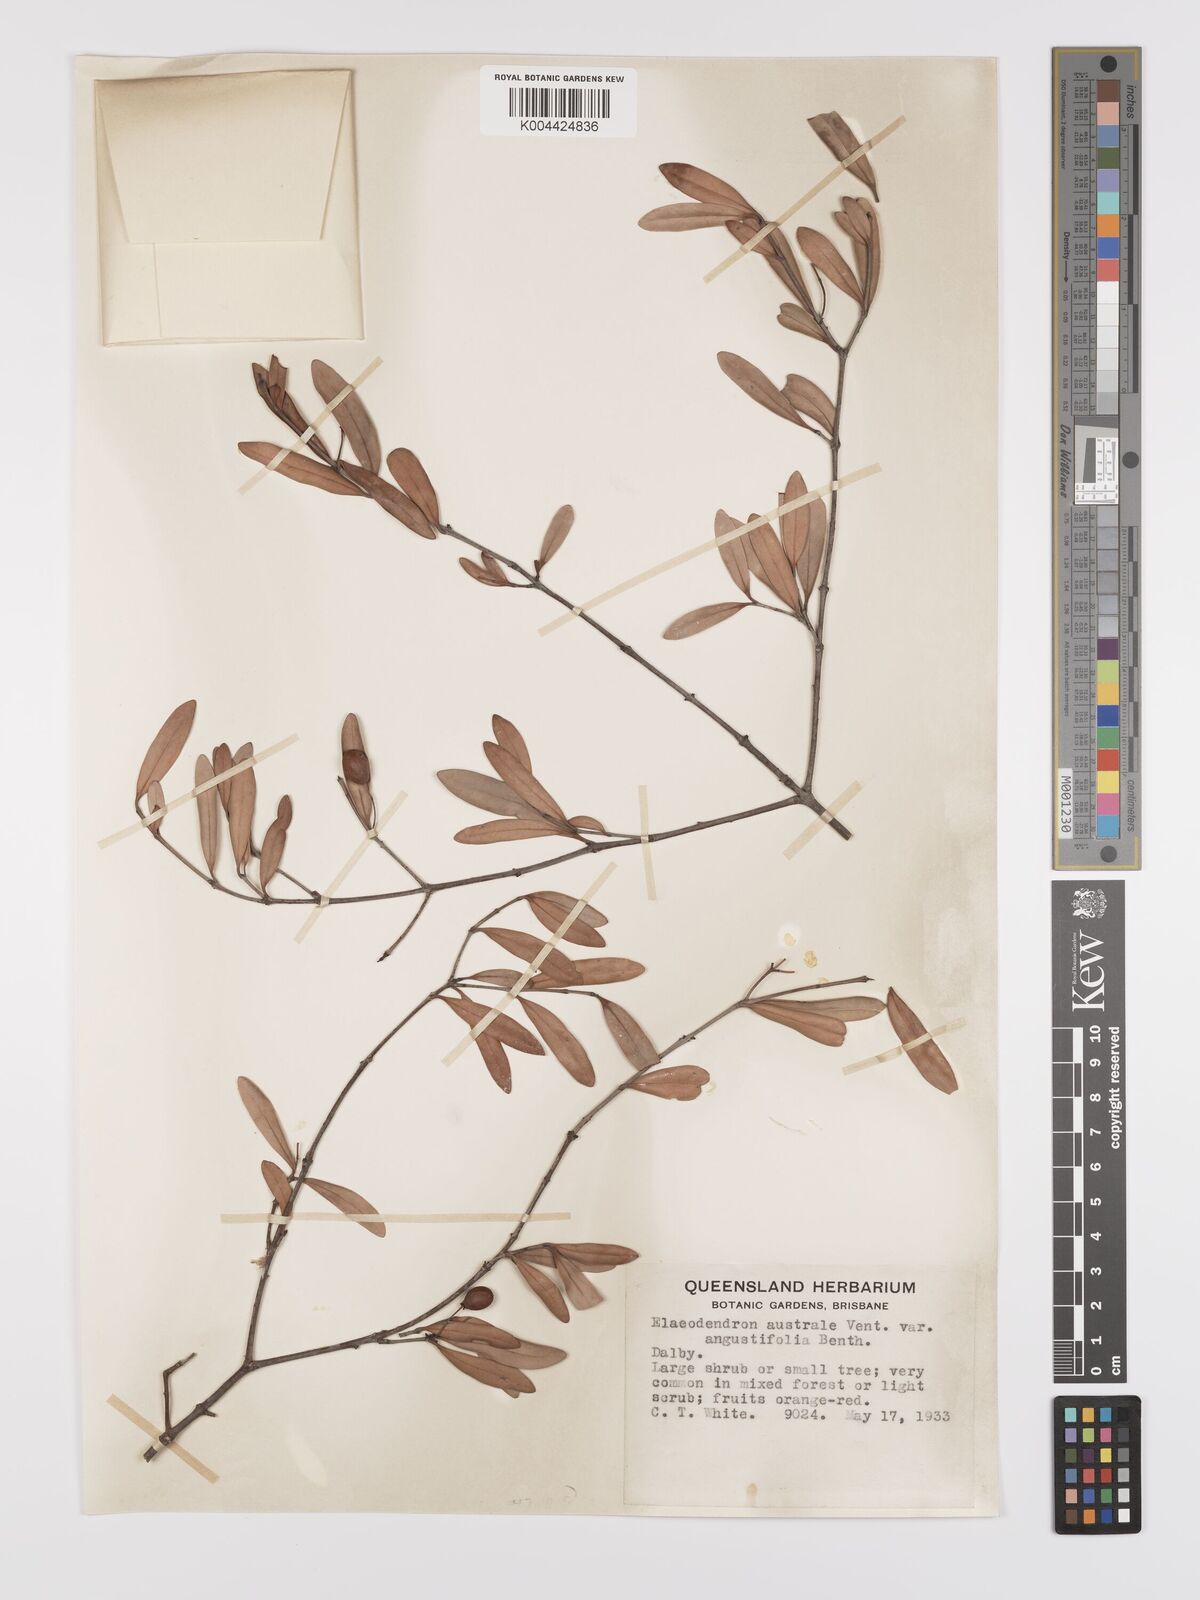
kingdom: Plantae
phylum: Tracheophyta
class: Magnoliopsida
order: Celastrales
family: Celastraceae
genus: Elaeodendron
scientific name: Elaeodendron australe
